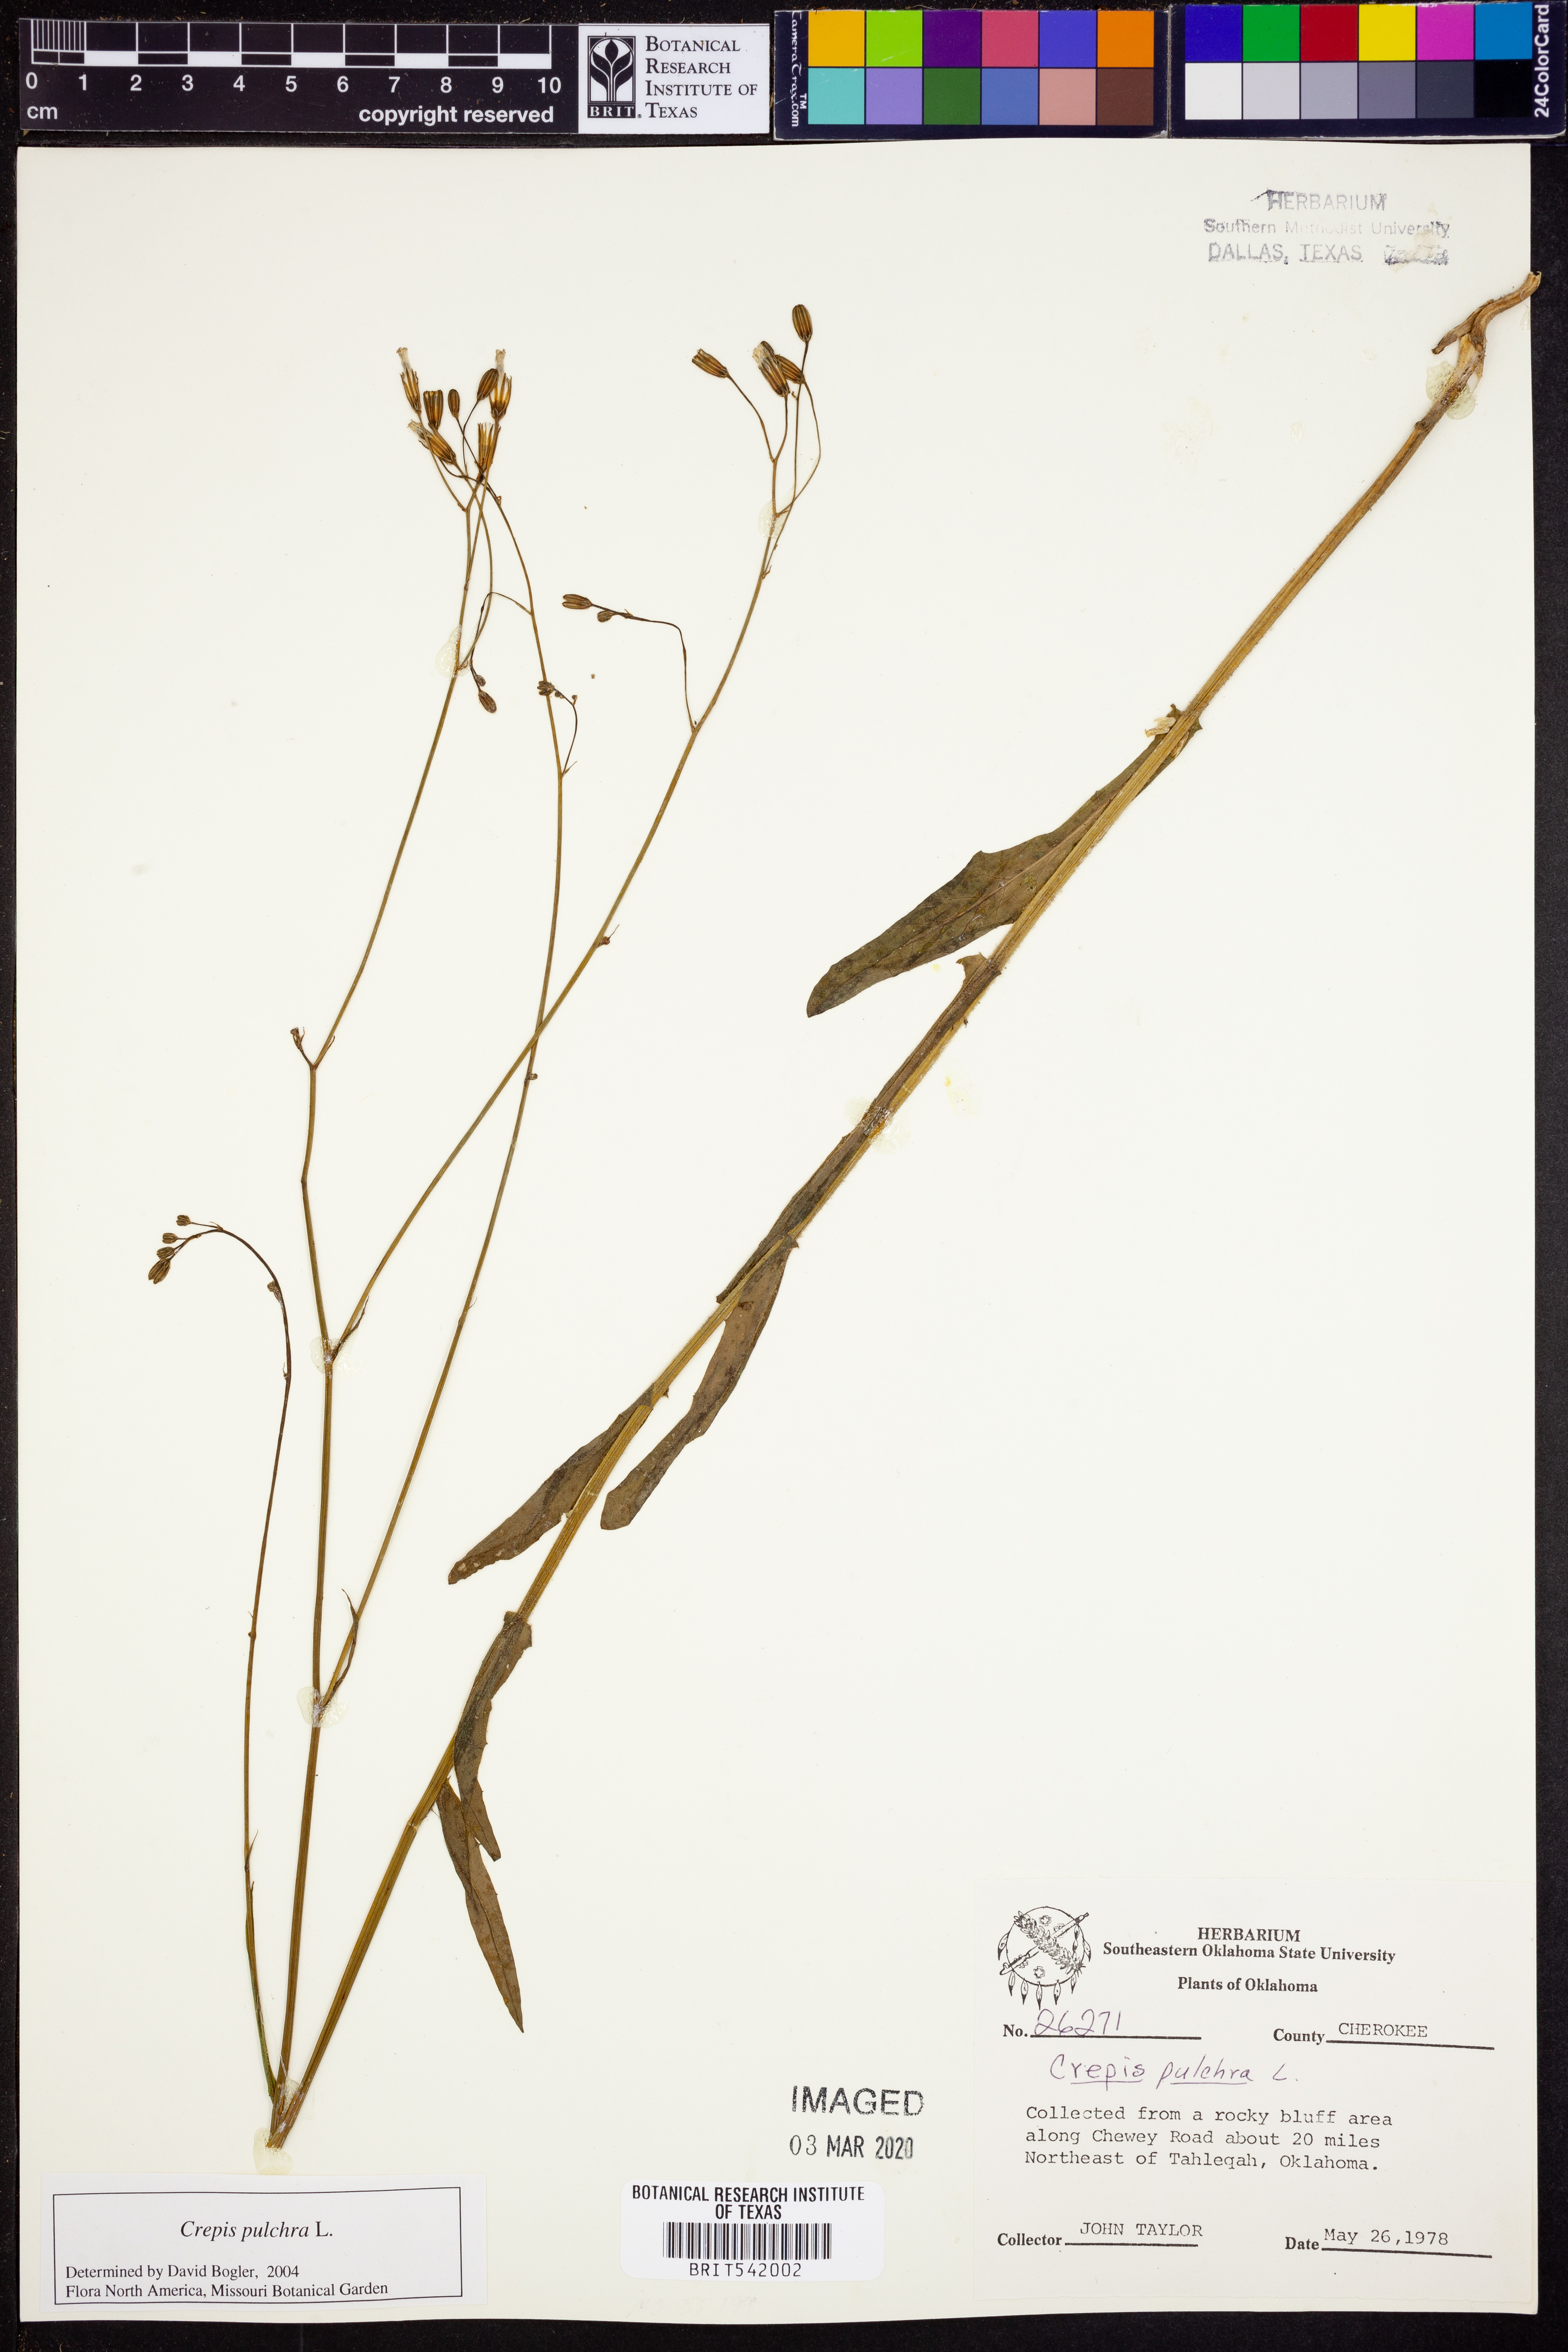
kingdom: Plantae
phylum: Tracheophyta
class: Magnoliopsida
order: Asterales
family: Asteraceae
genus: Crepis
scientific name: Crepis pulchra
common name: Hawk's-beard
